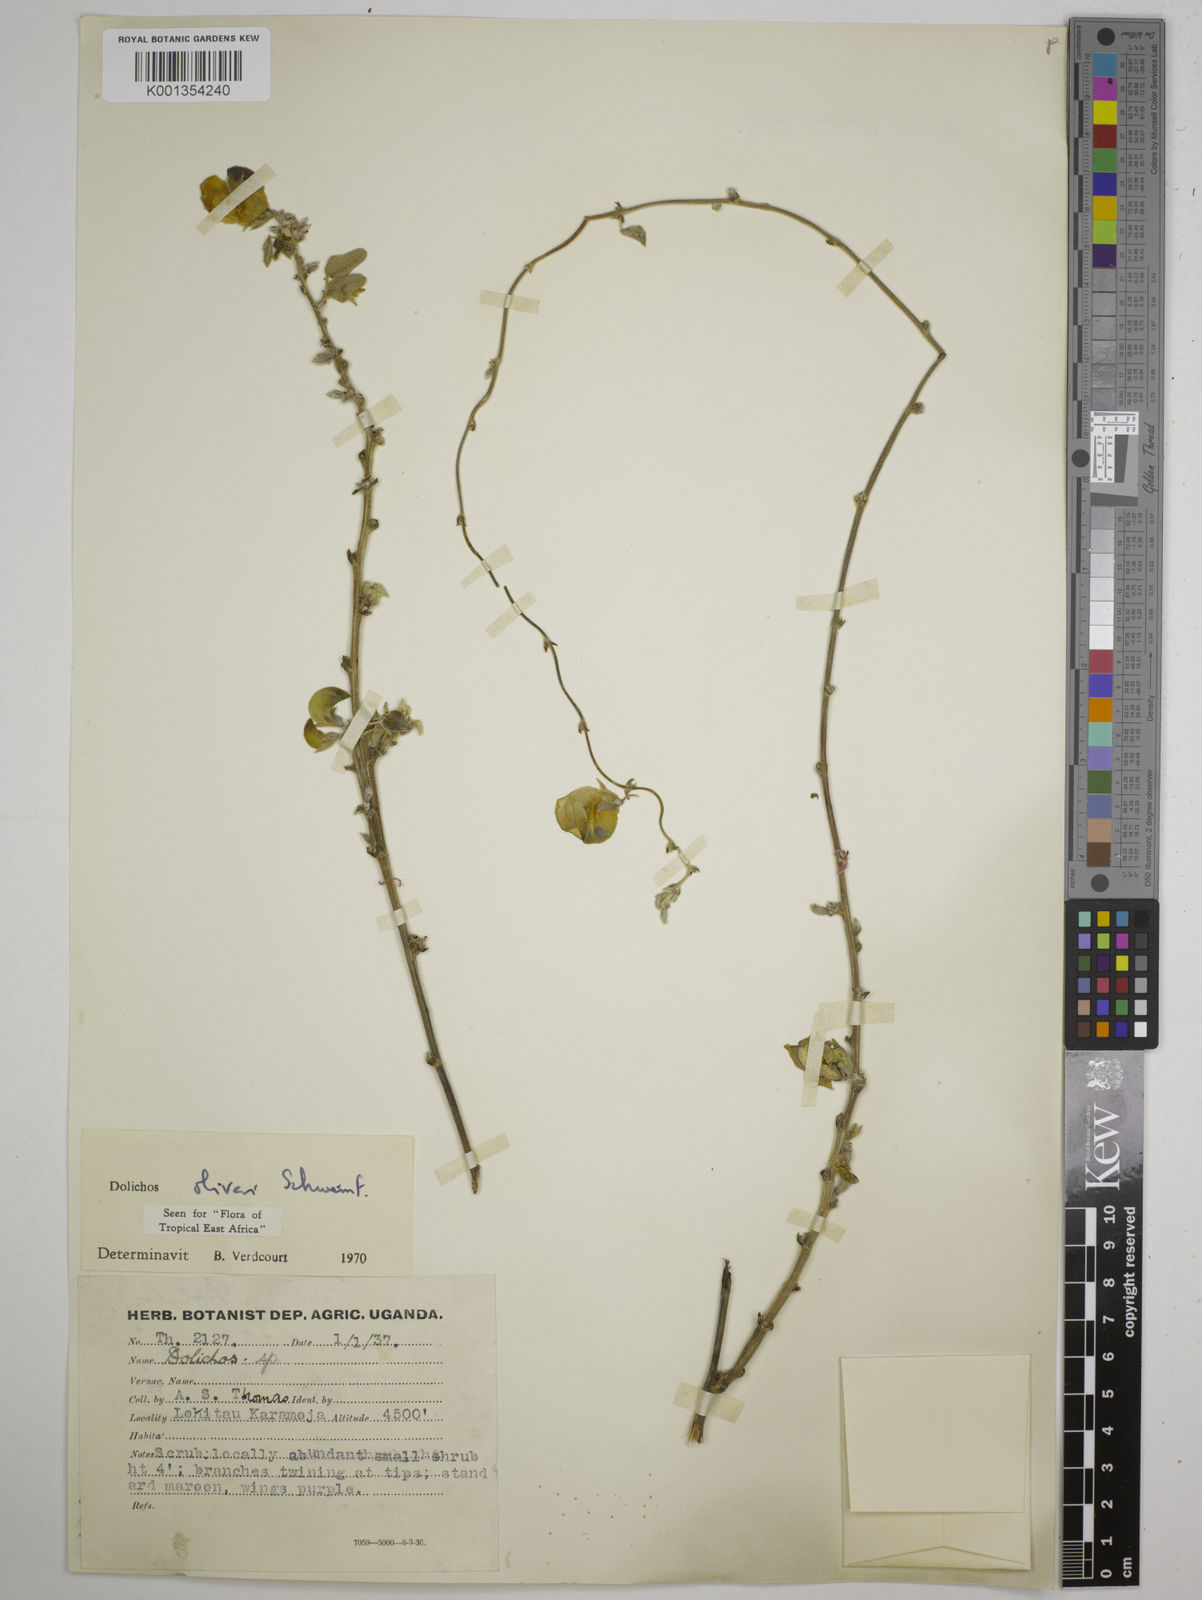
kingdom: Plantae
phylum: Tracheophyta
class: Magnoliopsida
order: Fabales
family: Fabaceae
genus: Dolichos
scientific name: Dolichos oliveri
